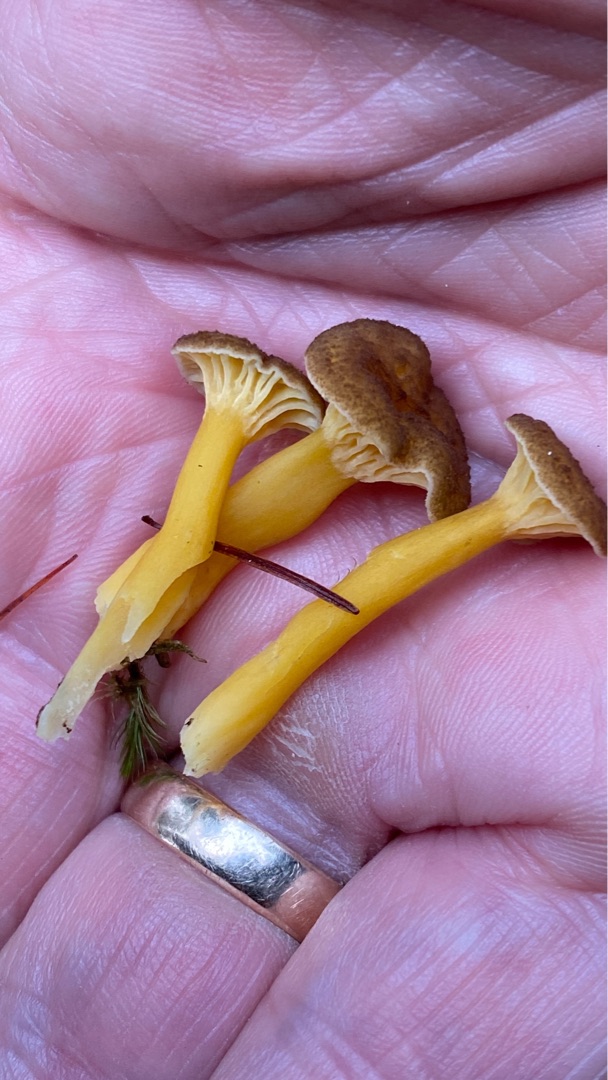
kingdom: Fungi
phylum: Basidiomycota
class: Agaricomycetes
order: Cantharellales
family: Hydnaceae
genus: Craterellus
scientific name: Craterellus tubaeformis
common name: Tragt-kantarel
